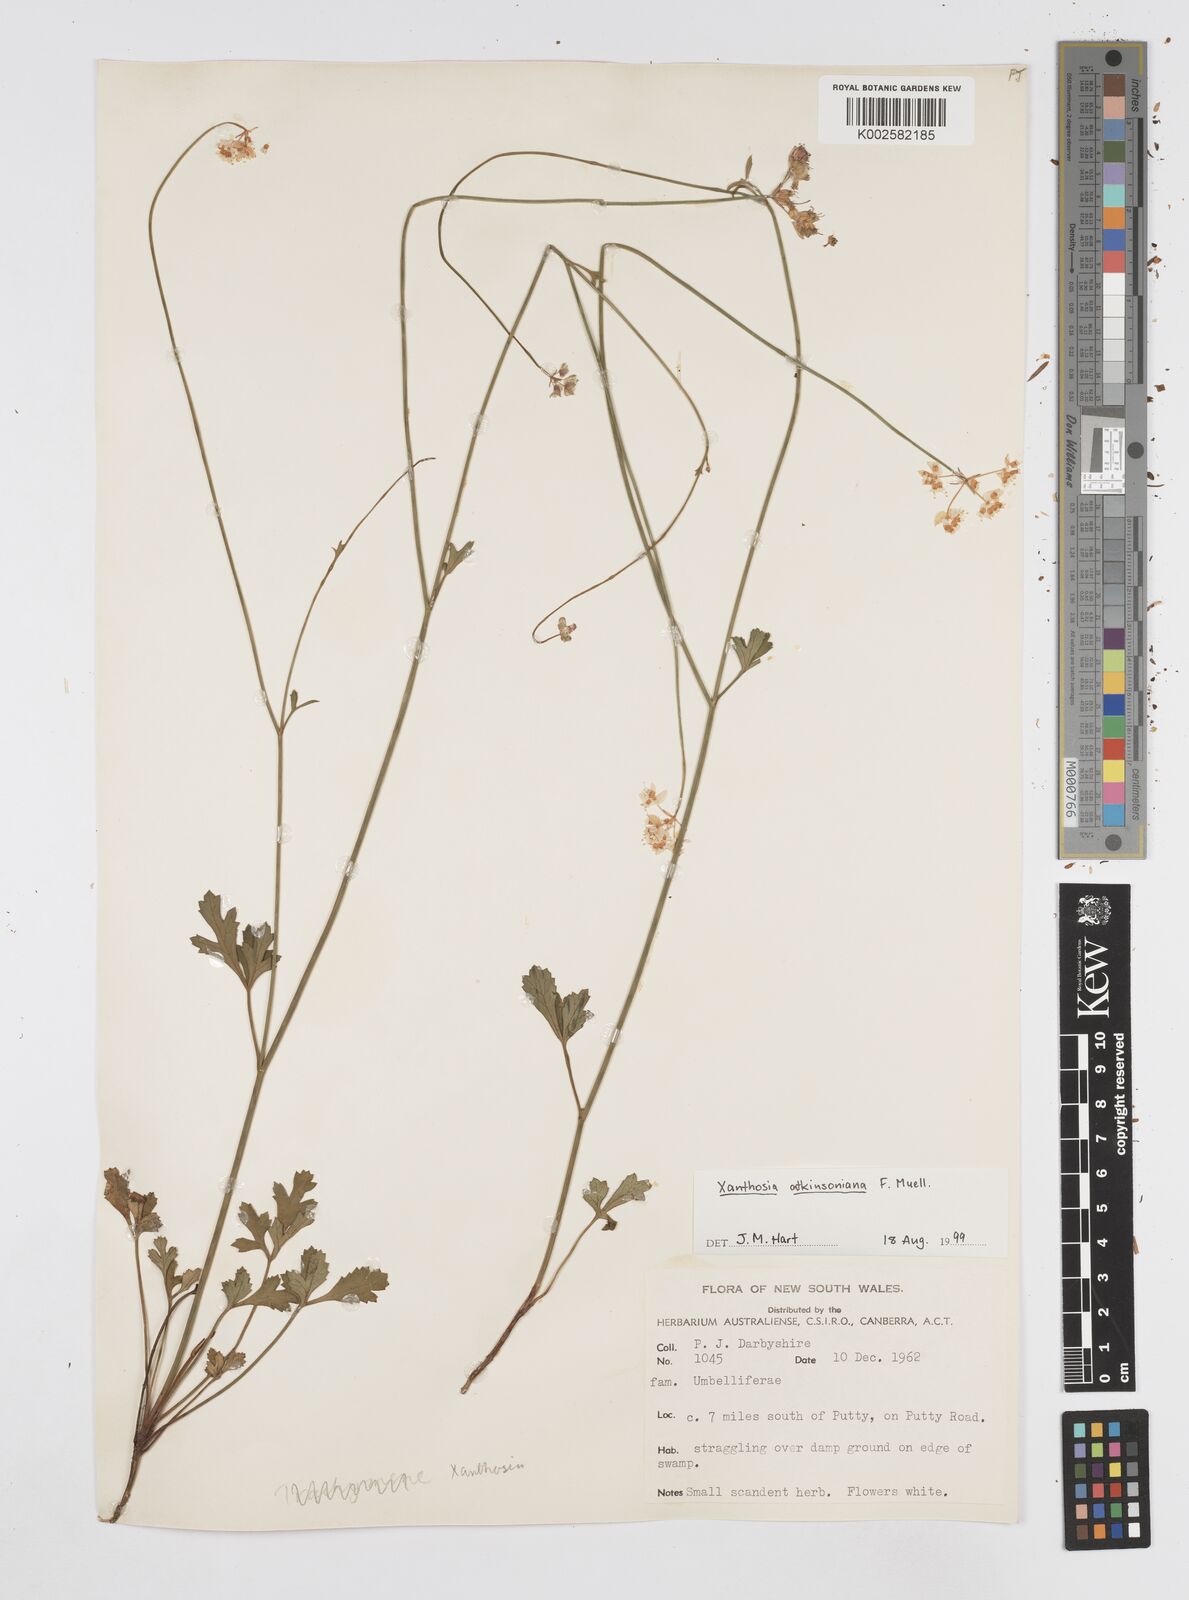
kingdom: Plantae
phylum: Tracheophyta
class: Magnoliopsida
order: Apiales
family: Apiaceae
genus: Xanthosia
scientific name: Xanthosia atkinsoniana
